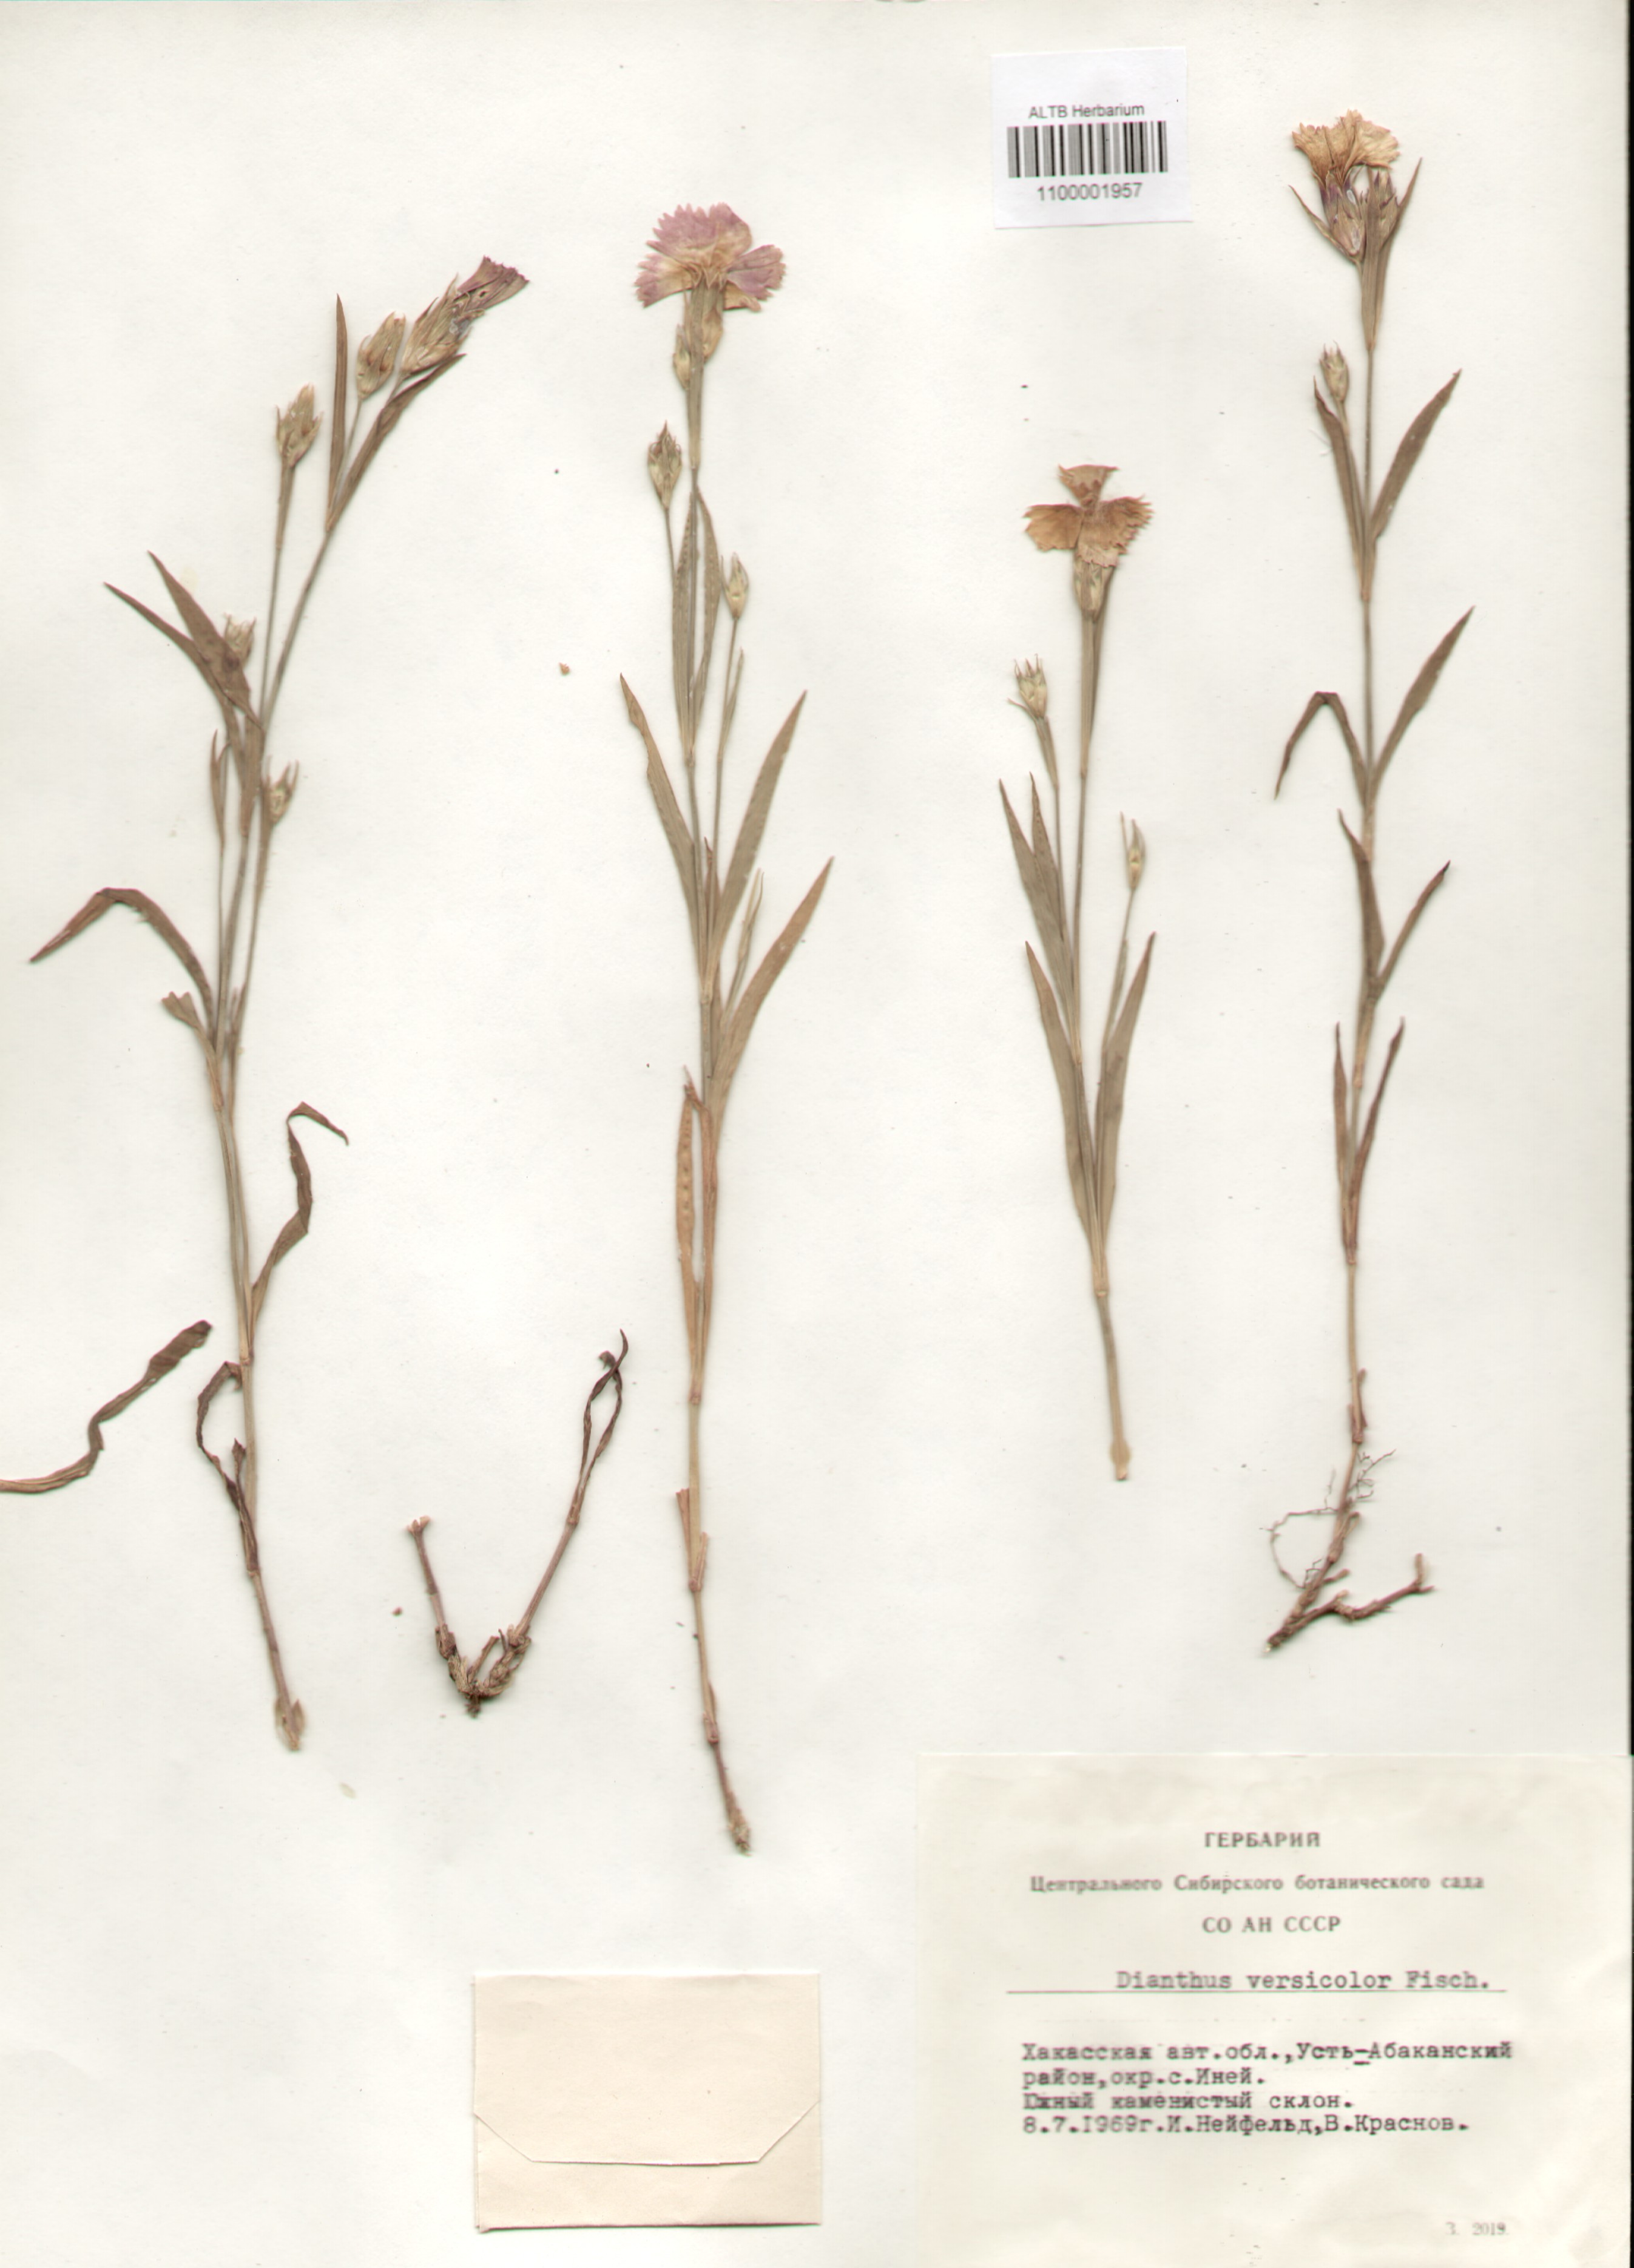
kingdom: Plantae
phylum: Tracheophyta
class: Magnoliopsida
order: Caryophyllales
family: Caryophyllaceae
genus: Dianthus
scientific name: Dianthus chinensis
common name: Rainbow pink
